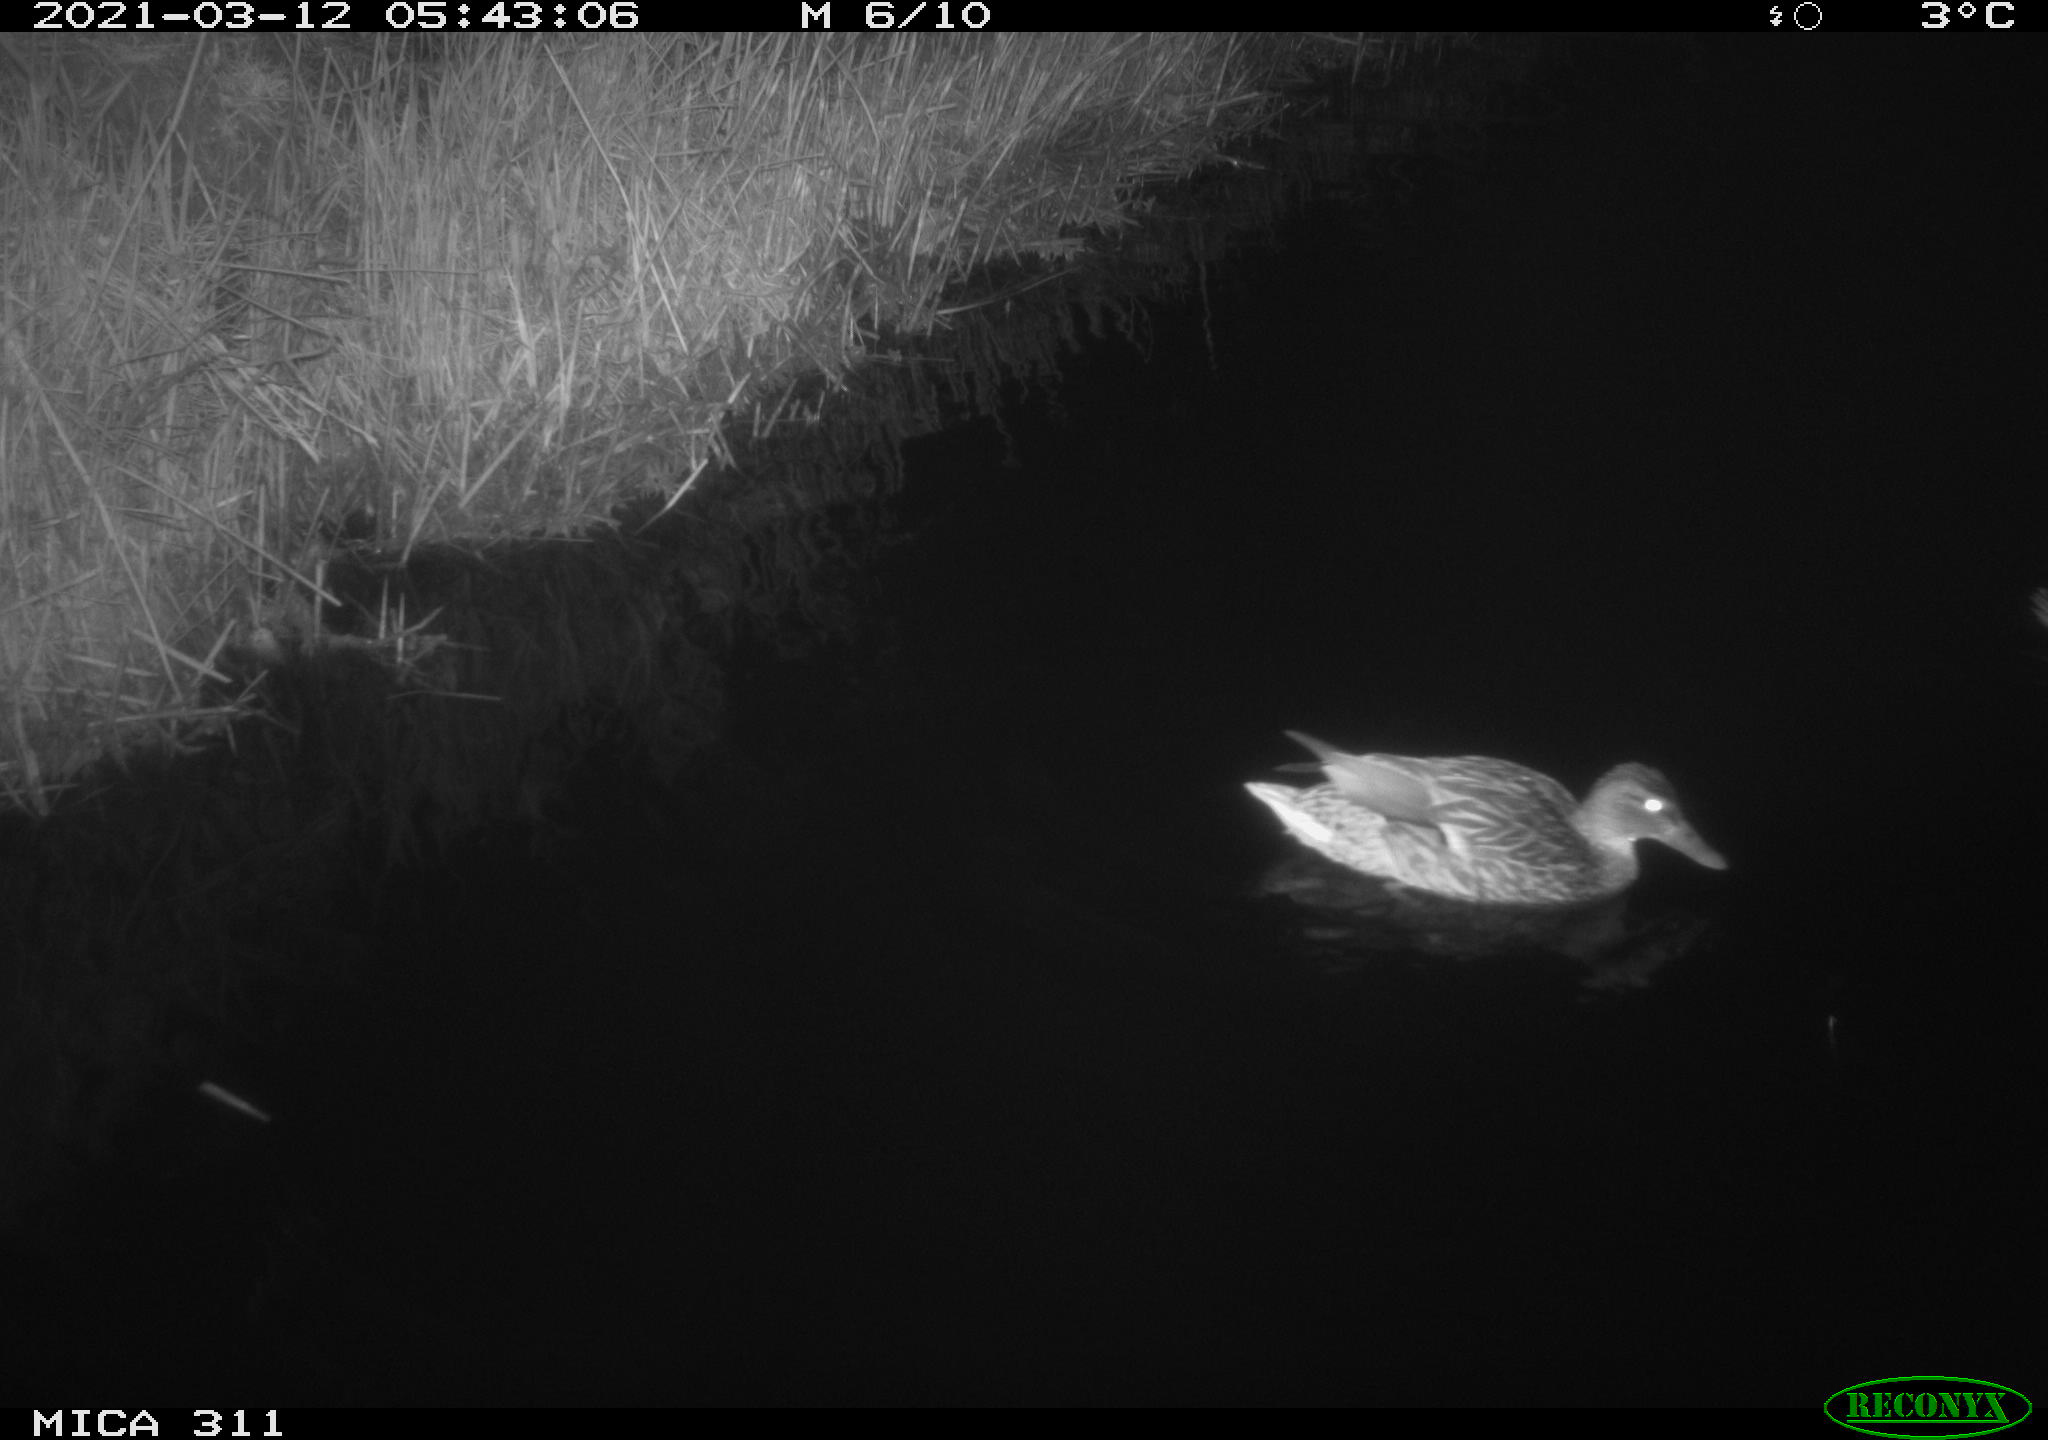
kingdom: Animalia
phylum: Chordata
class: Aves
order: Anseriformes
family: Anatidae
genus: Anas
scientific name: Anas
